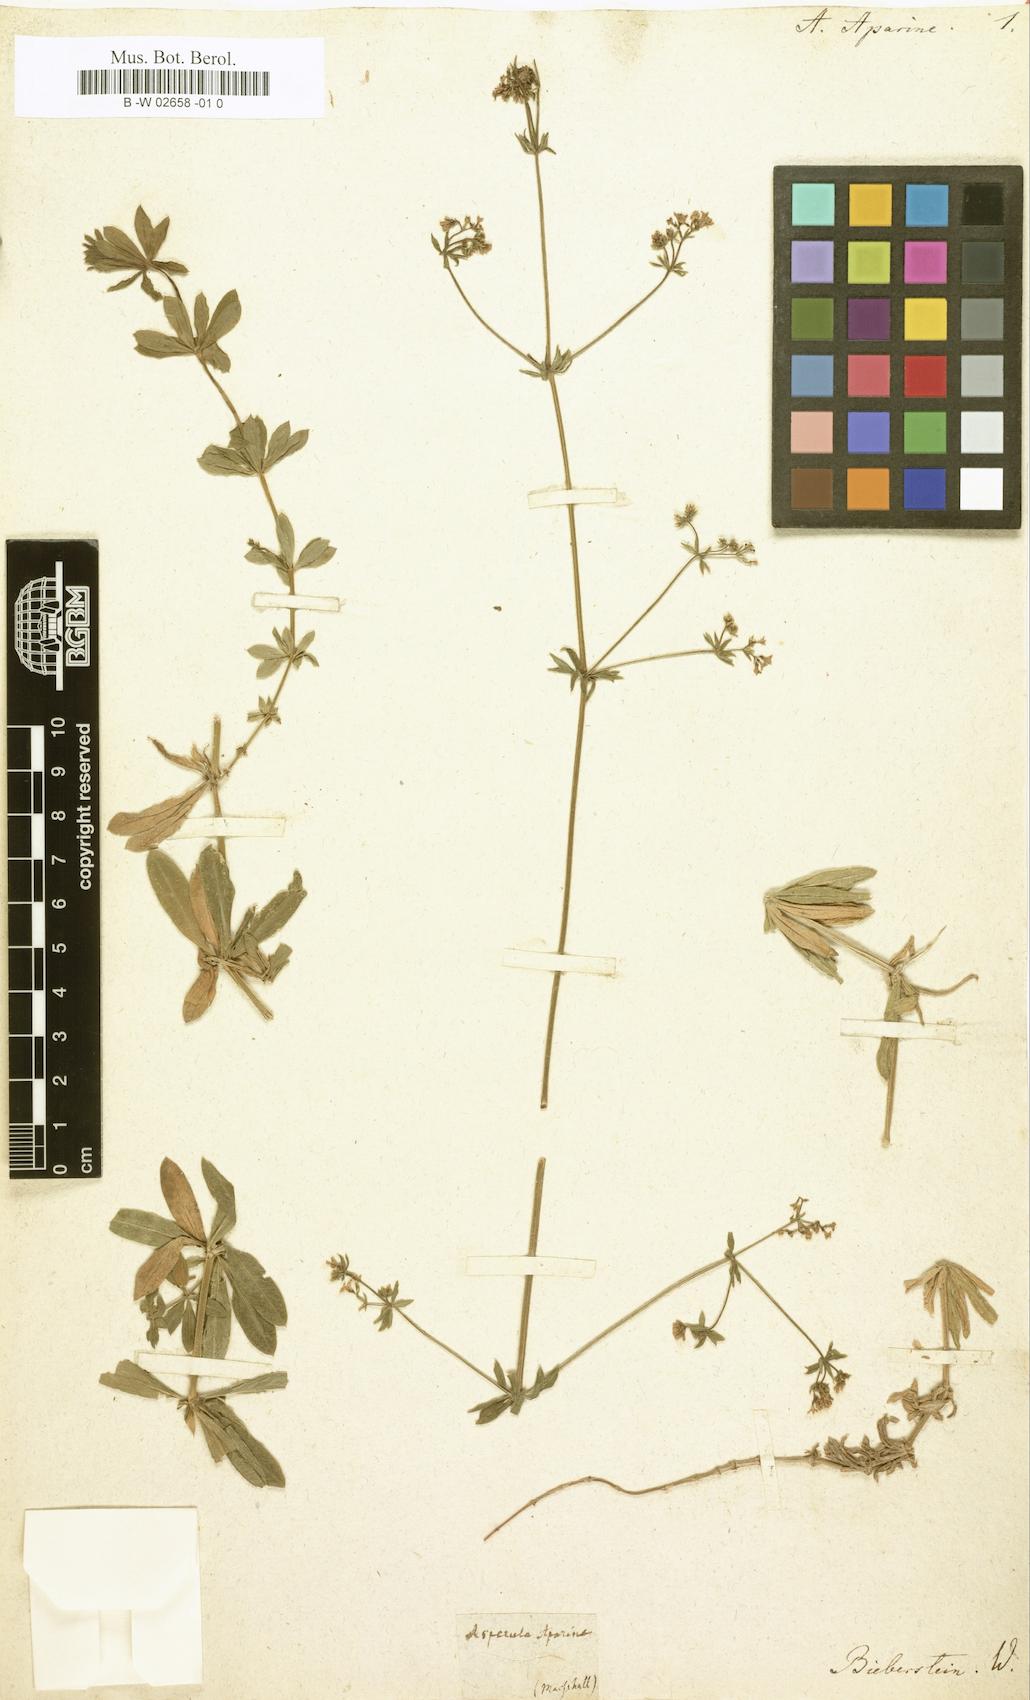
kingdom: Plantae
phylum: Tracheophyta
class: Magnoliopsida
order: Gentianales
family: Rubiaceae
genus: Galium
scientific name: Galium pseudorivale
